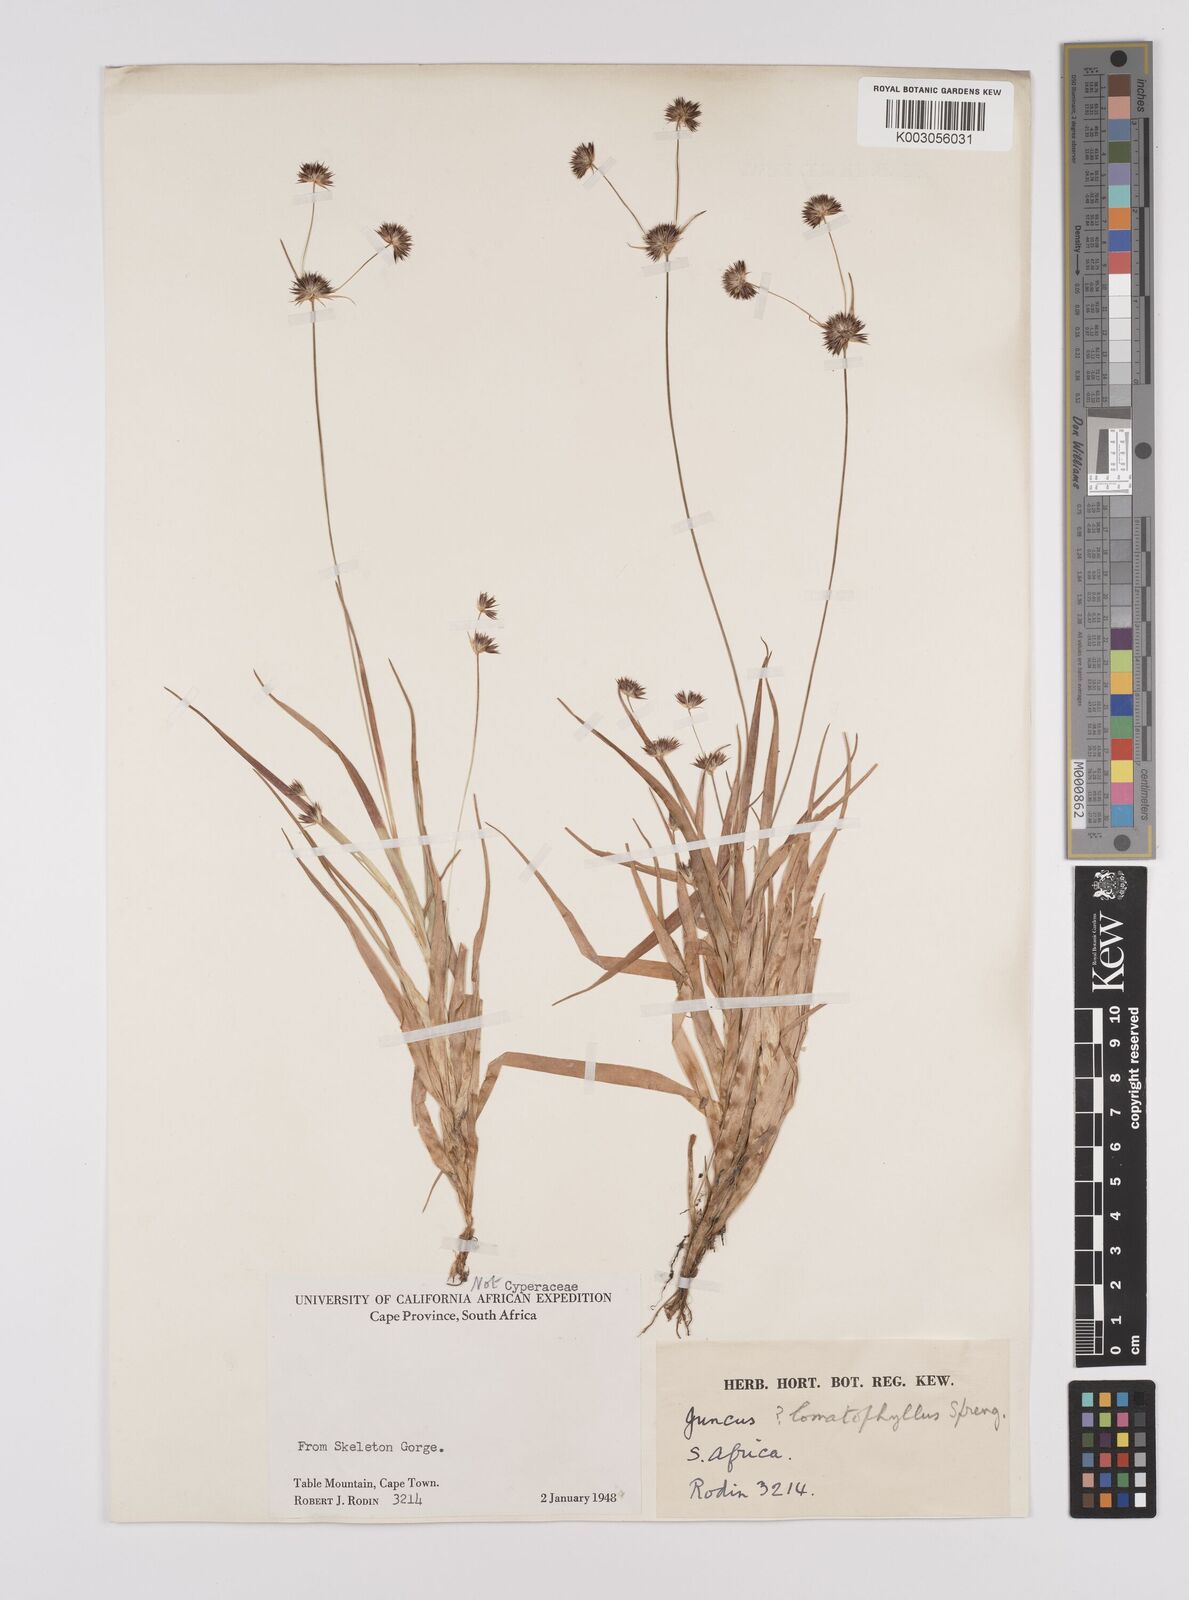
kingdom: Plantae
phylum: Tracheophyta
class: Liliopsida
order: Poales
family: Juncaceae
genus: Juncus
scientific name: Juncus lomatophyllus
